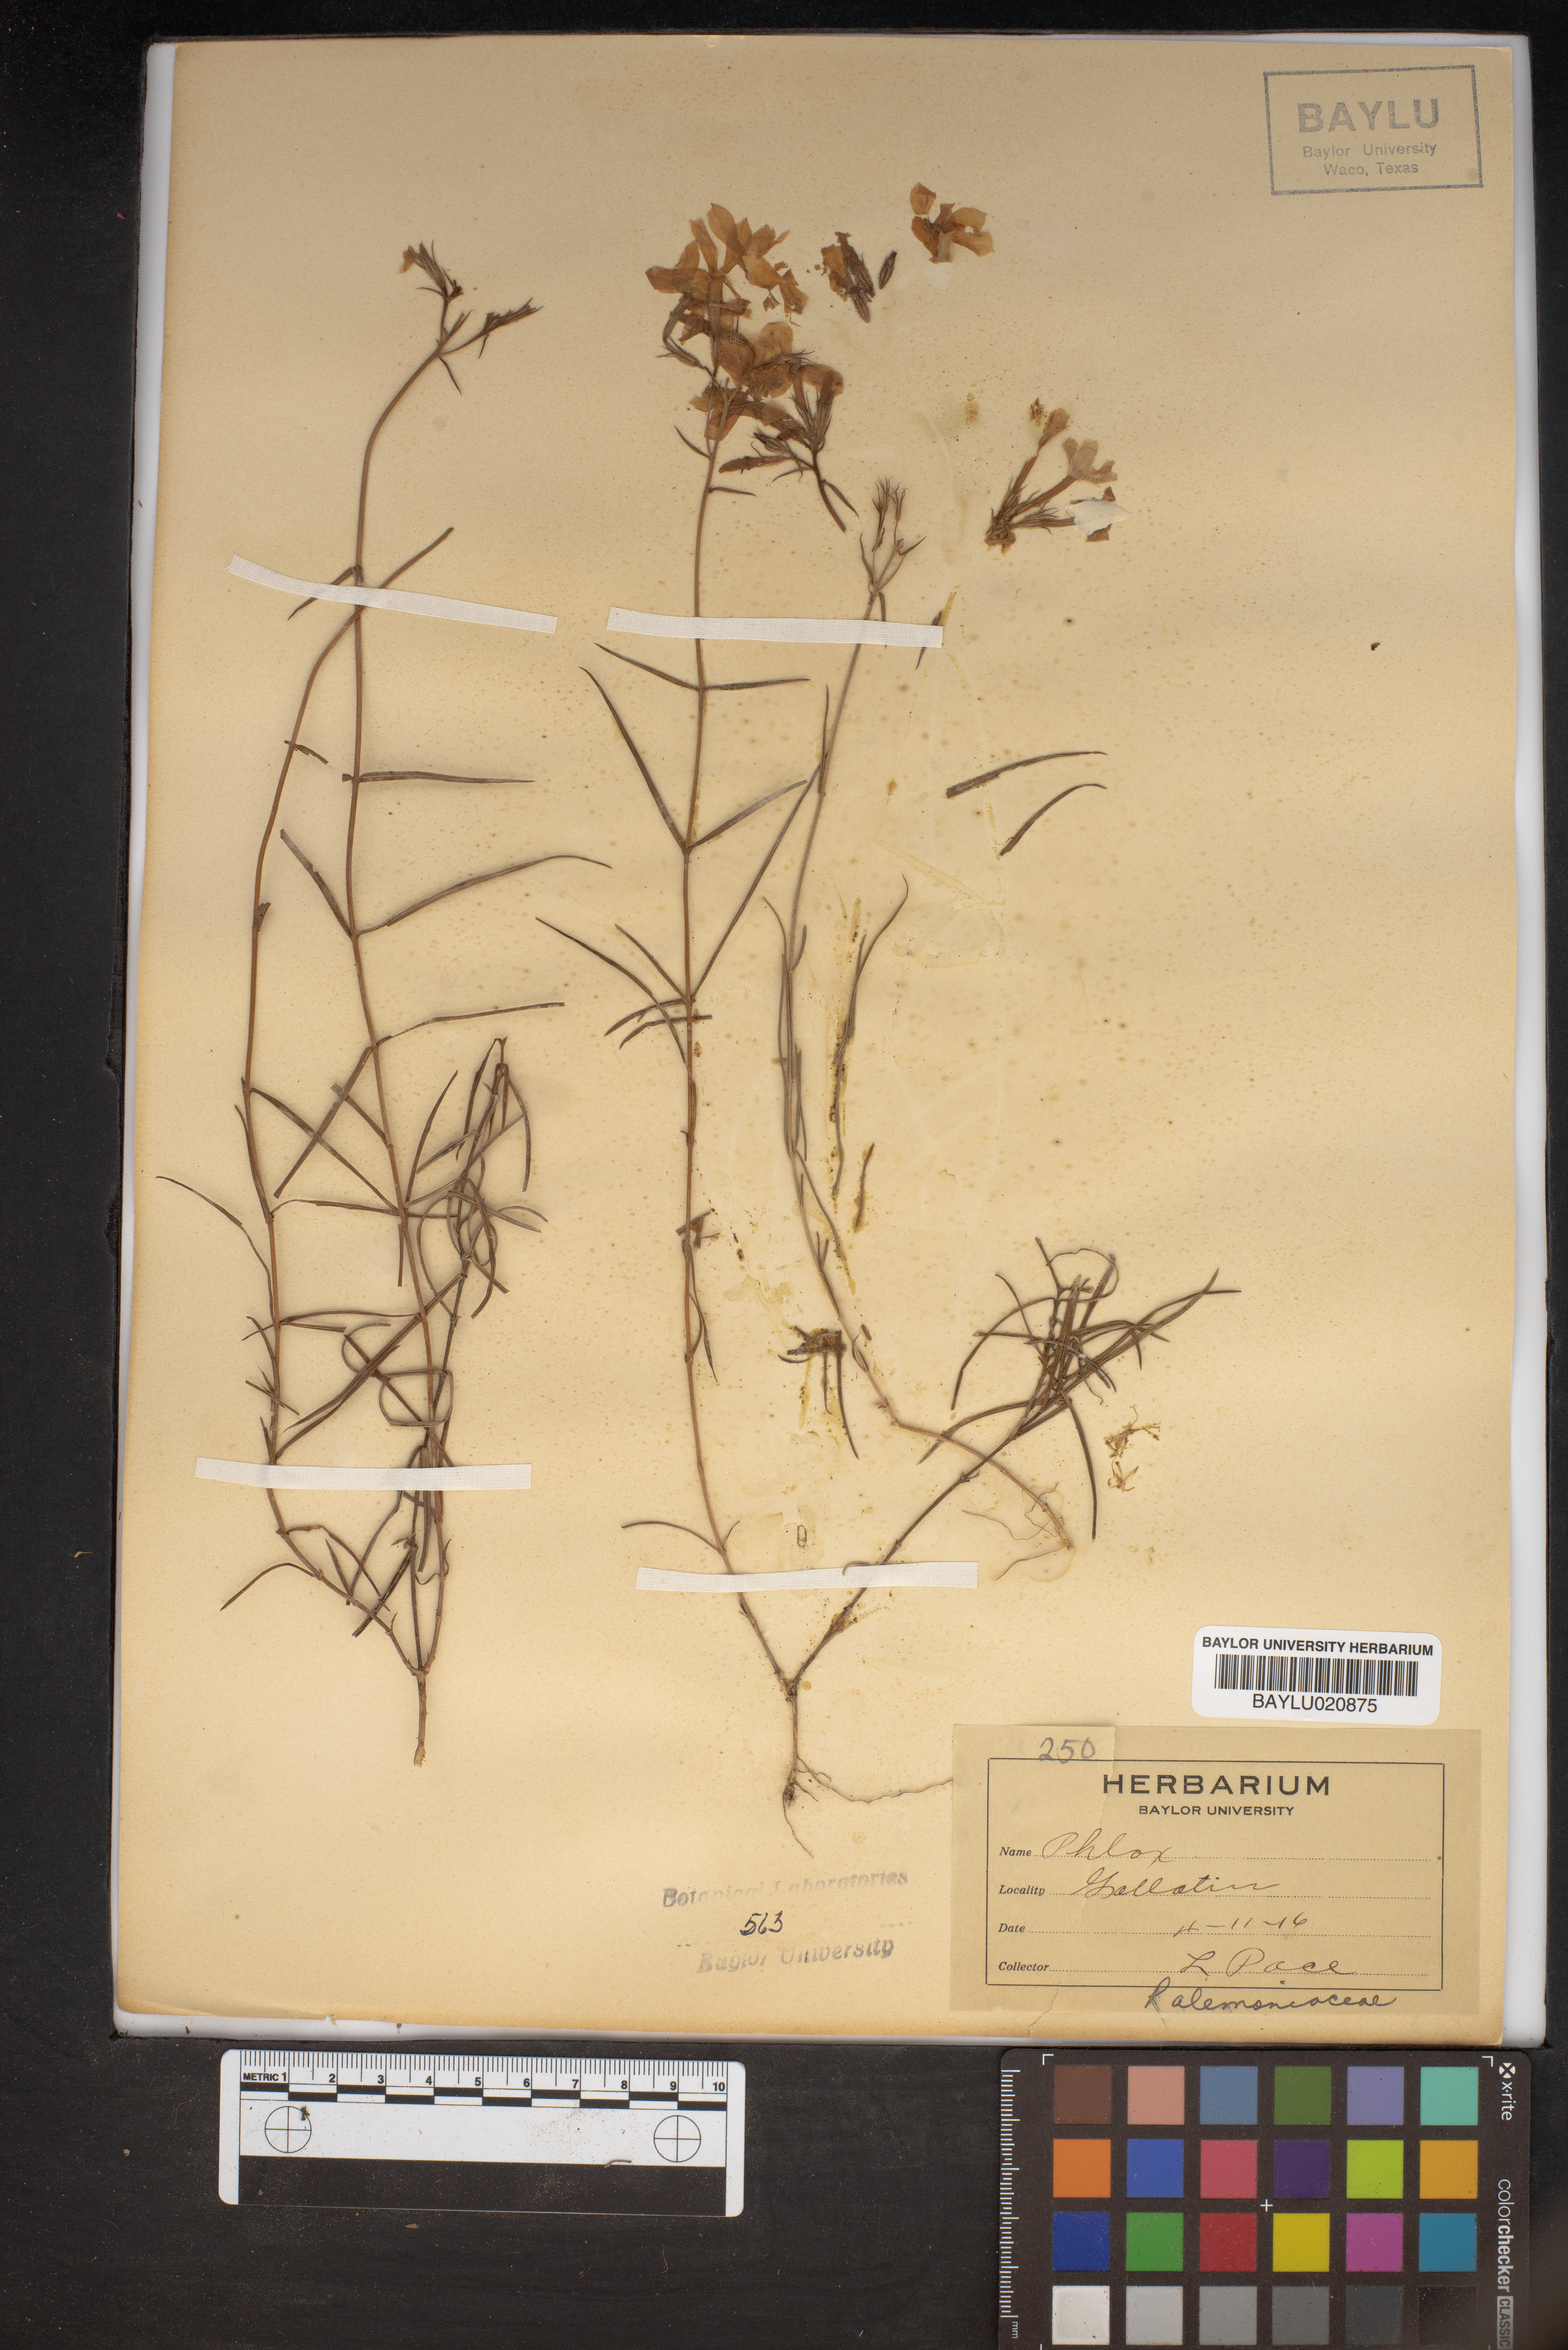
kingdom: Plantae
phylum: Tracheophyta
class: Magnoliopsida
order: Ericales
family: Polemoniaceae
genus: Phlox
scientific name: Phlox
